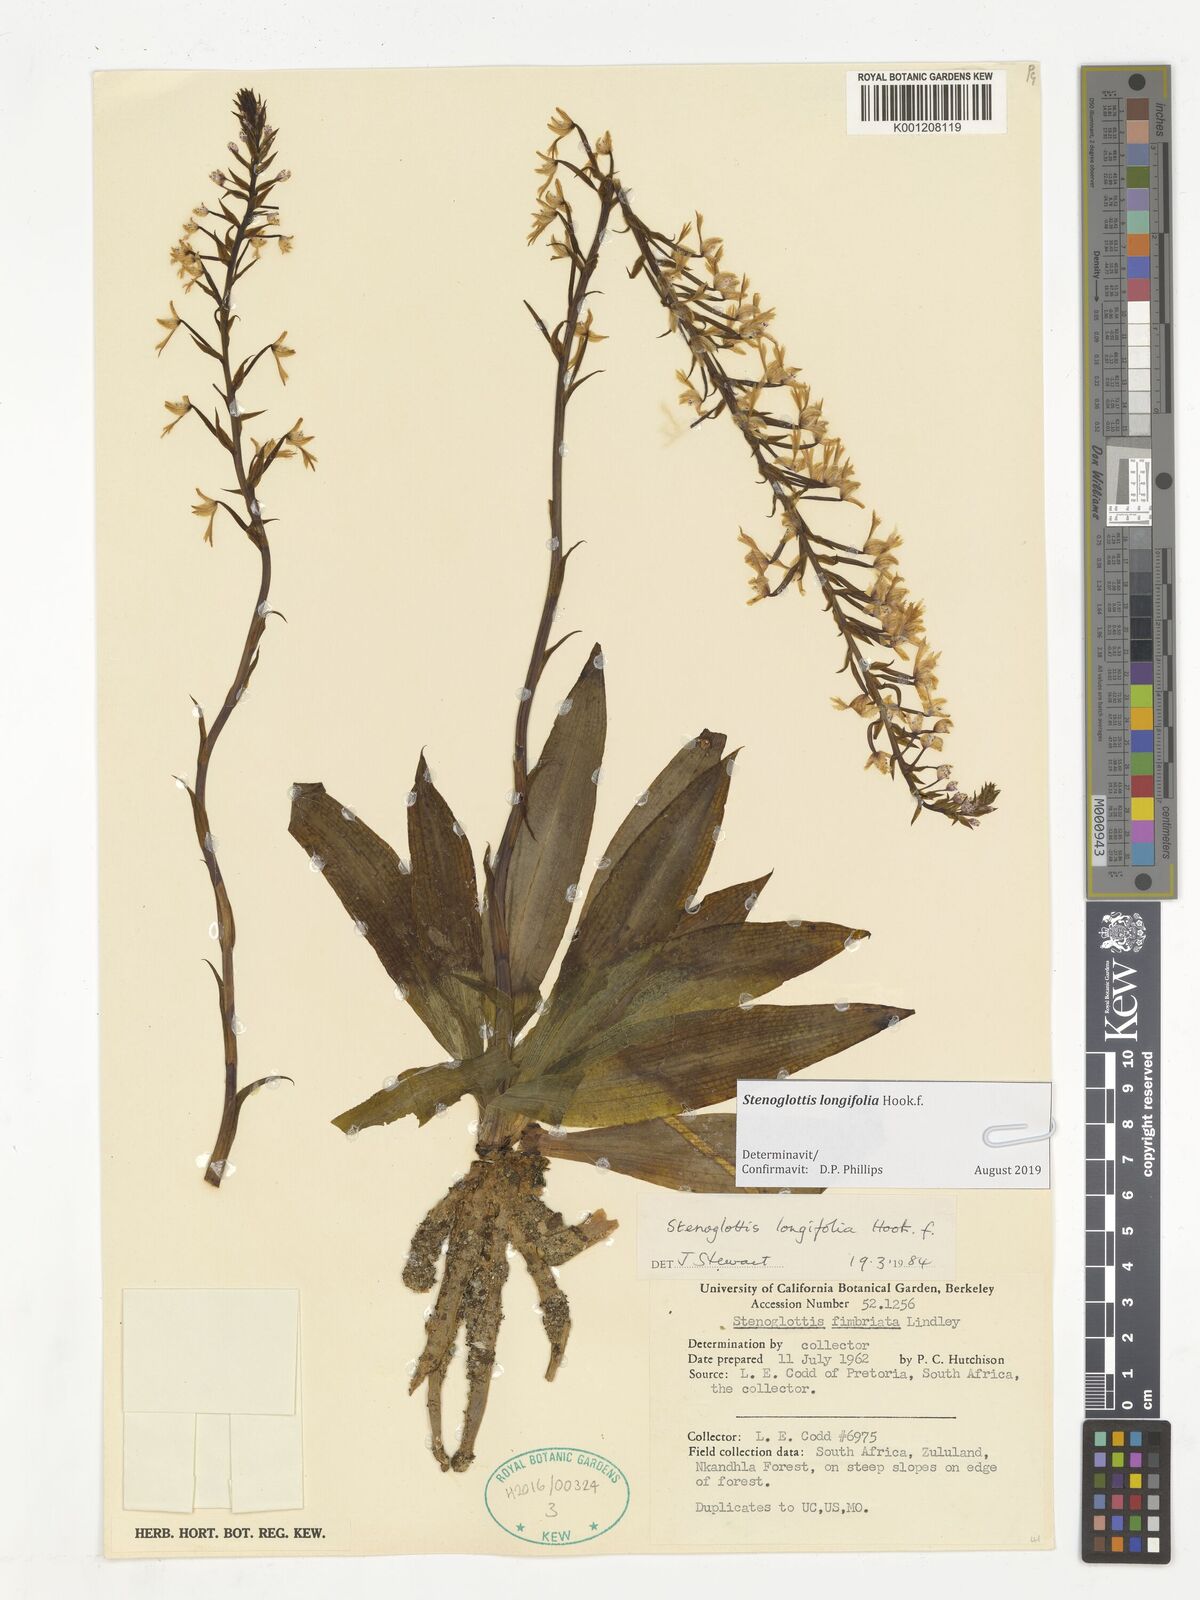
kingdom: Plantae
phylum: Tracheophyta
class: Liliopsida
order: Asparagales
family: Orchidaceae
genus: Stenoglottis
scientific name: Stenoglottis longifolia
